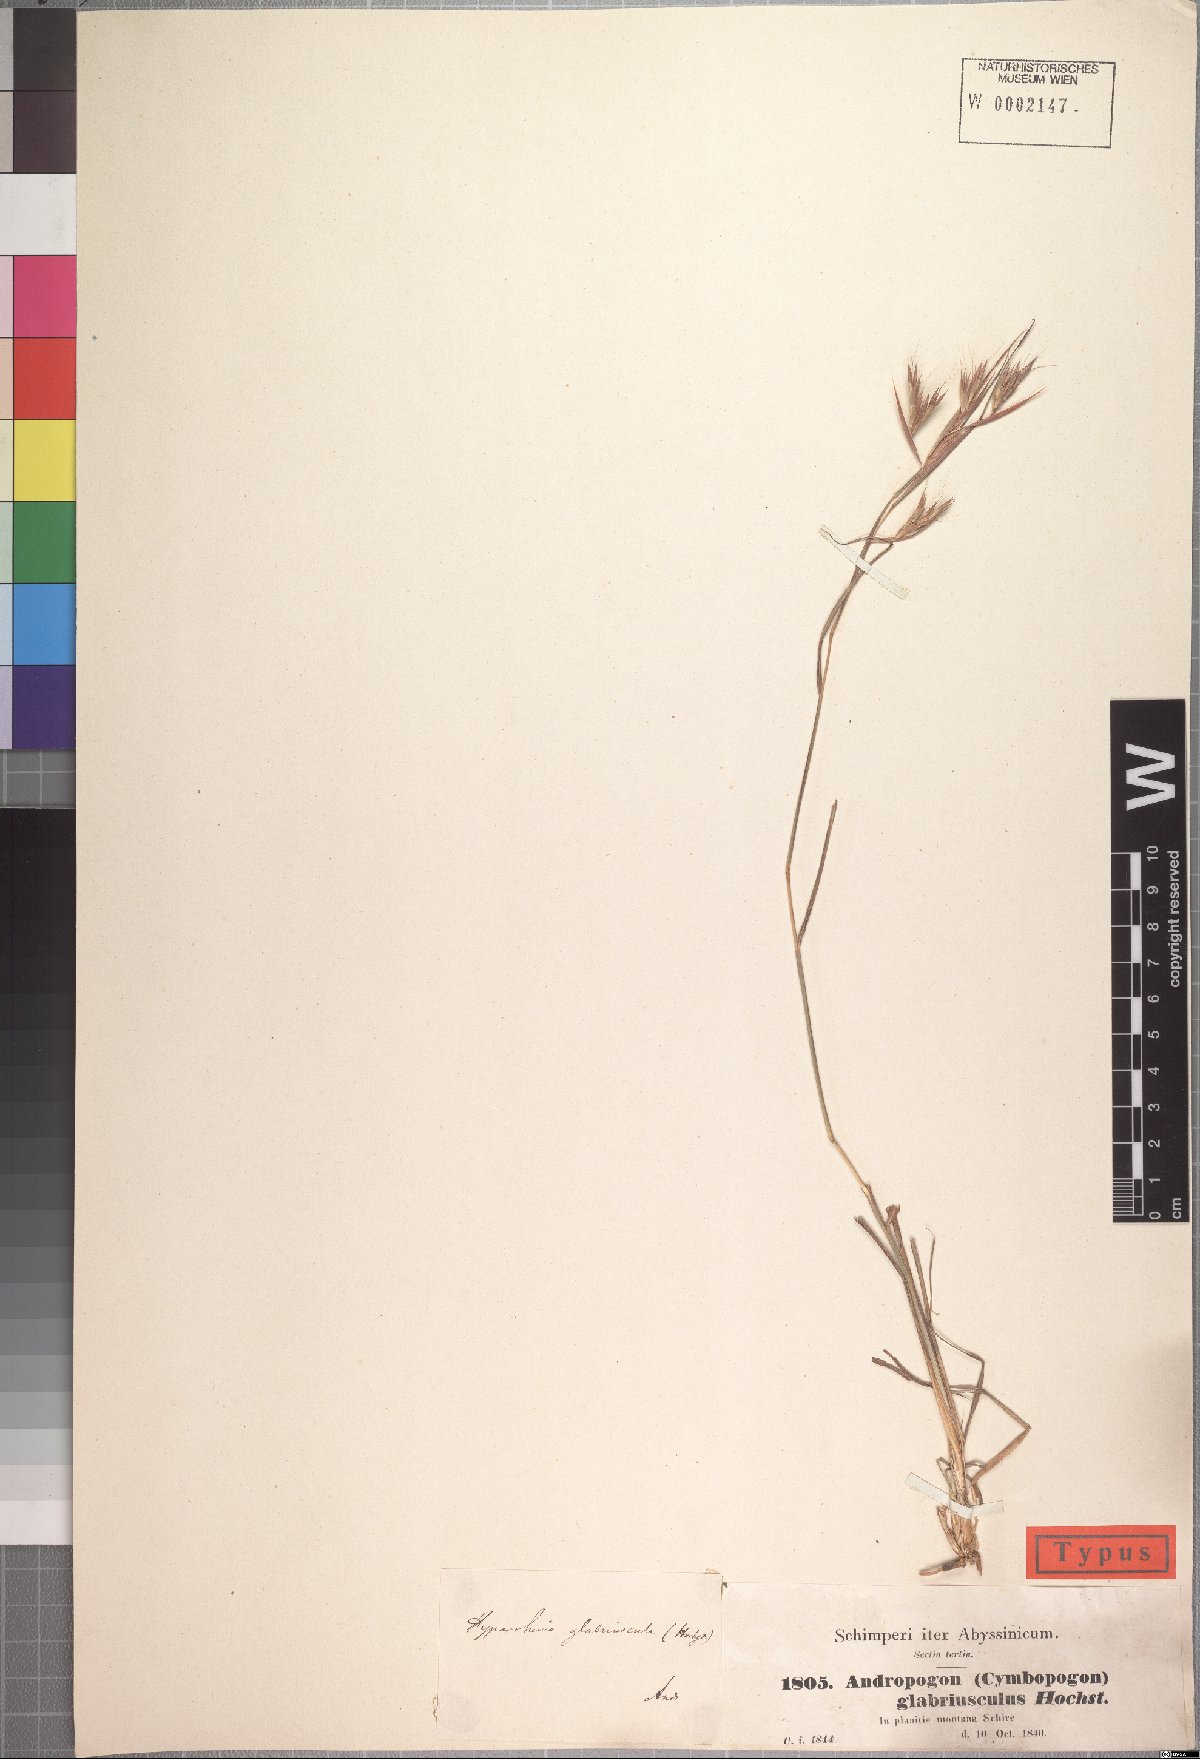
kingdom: Plantae
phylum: Tracheophyta
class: Liliopsida
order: Poales
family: Poaceae
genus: Hyparrhenia
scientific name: Hyparrhenia glabriuscula
